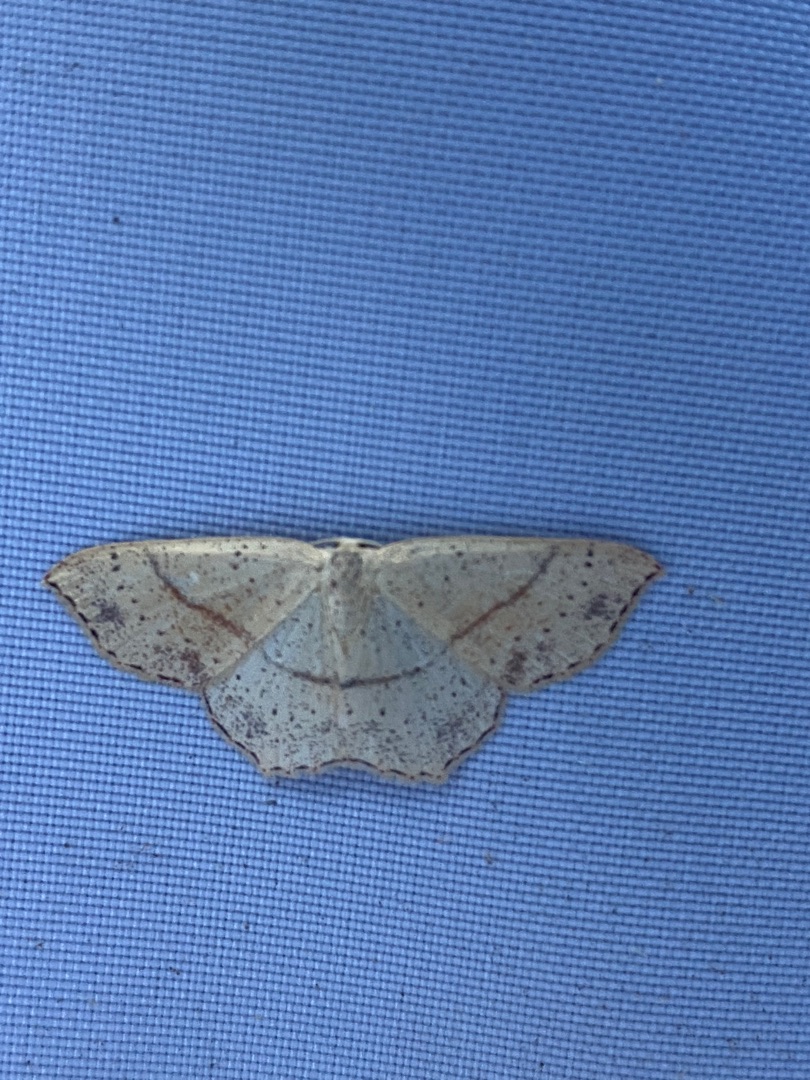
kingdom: Animalia
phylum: Arthropoda
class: Insecta
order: Lepidoptera
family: Geometridae
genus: Cyclophora
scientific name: Cyclophora punctaria
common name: Ege-bæltemåler
